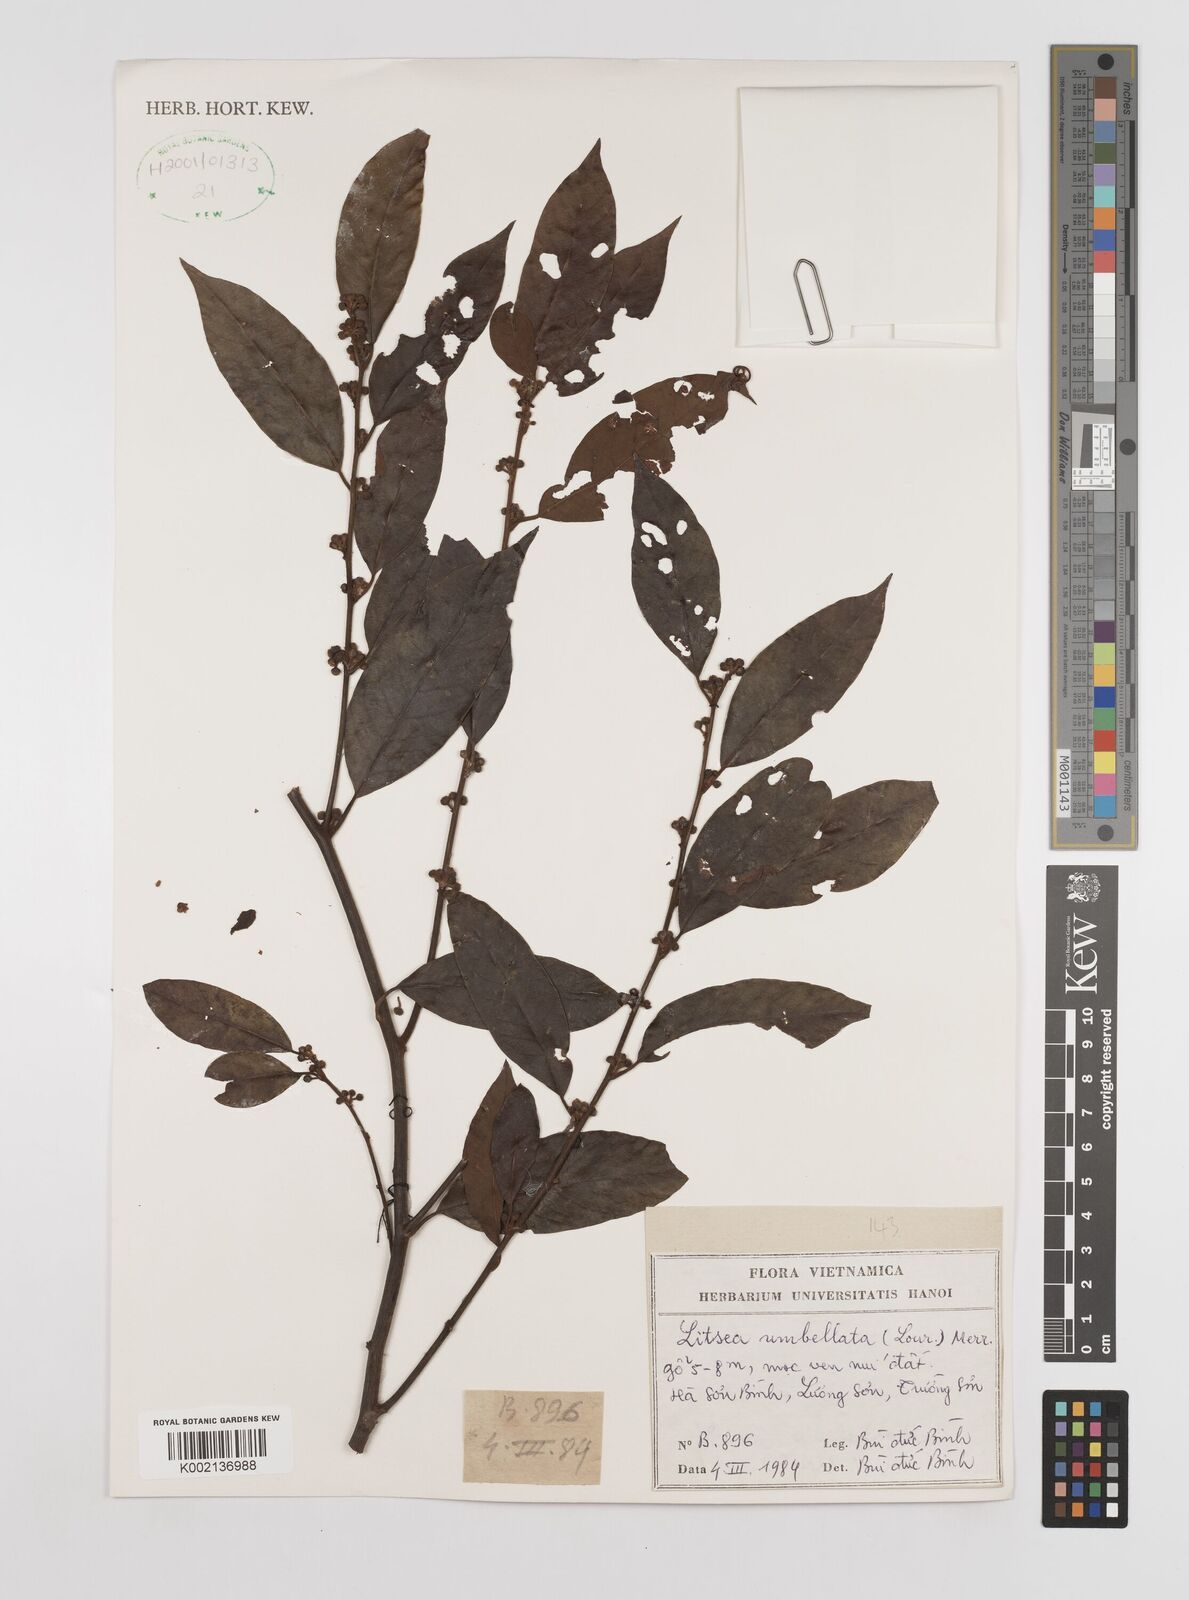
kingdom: Plantae
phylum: Tracheophyta
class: Magnoliopsida
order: Laurales
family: Lauraceae
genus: Litsea
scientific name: Litsea umbellata
